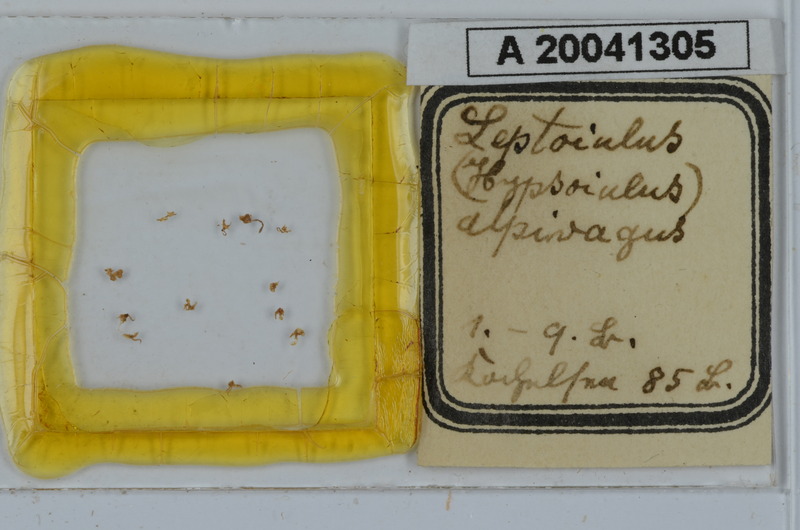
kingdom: Animalia
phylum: Arthropoda
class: Diplopoda
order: Julida
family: Julidae
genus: Hypsoiulus
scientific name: Hypsoiulus alpivagus
